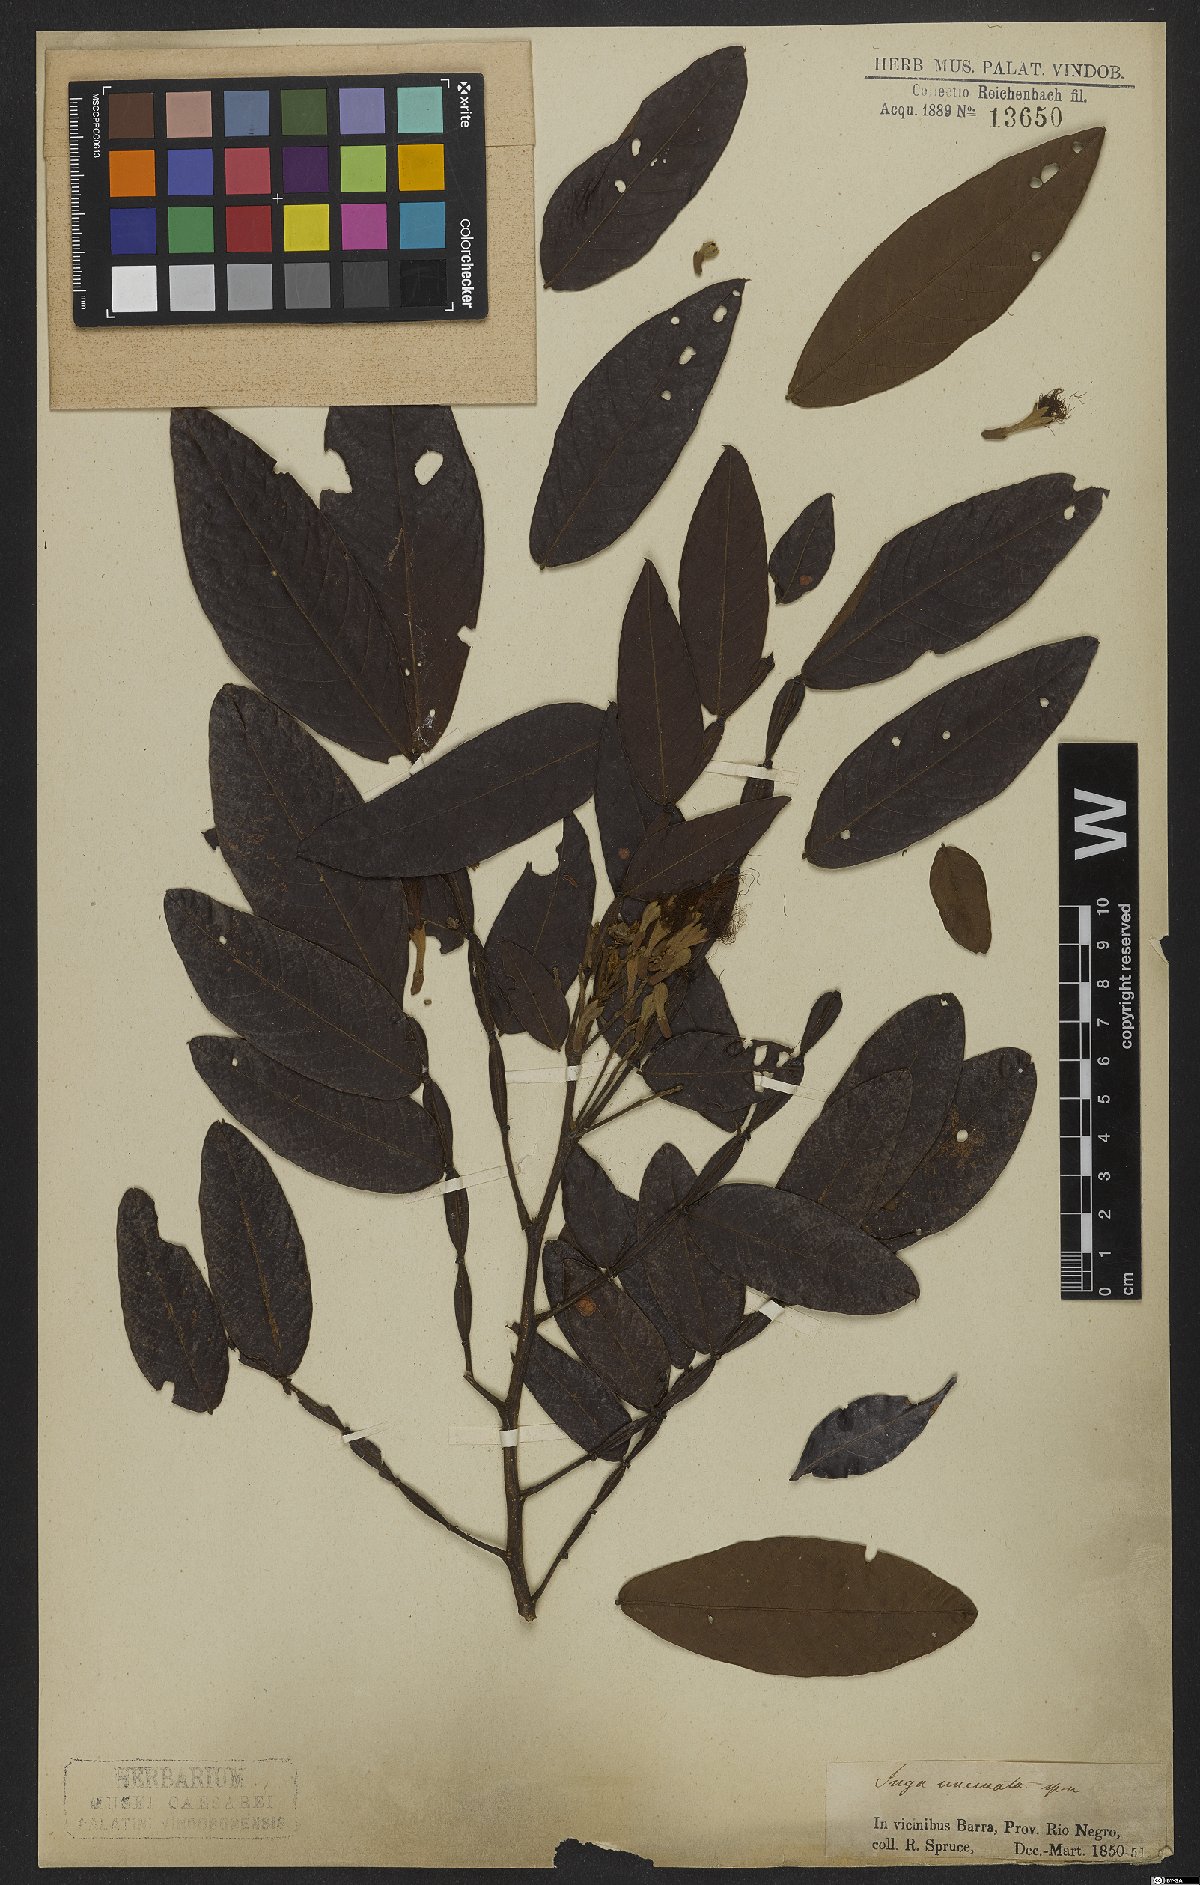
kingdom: Plantae
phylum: Tracheophyta
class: Magnoliopsida
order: Fabales
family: Fabaceae
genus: Inga
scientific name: Inga edulis
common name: Ice cream bean
